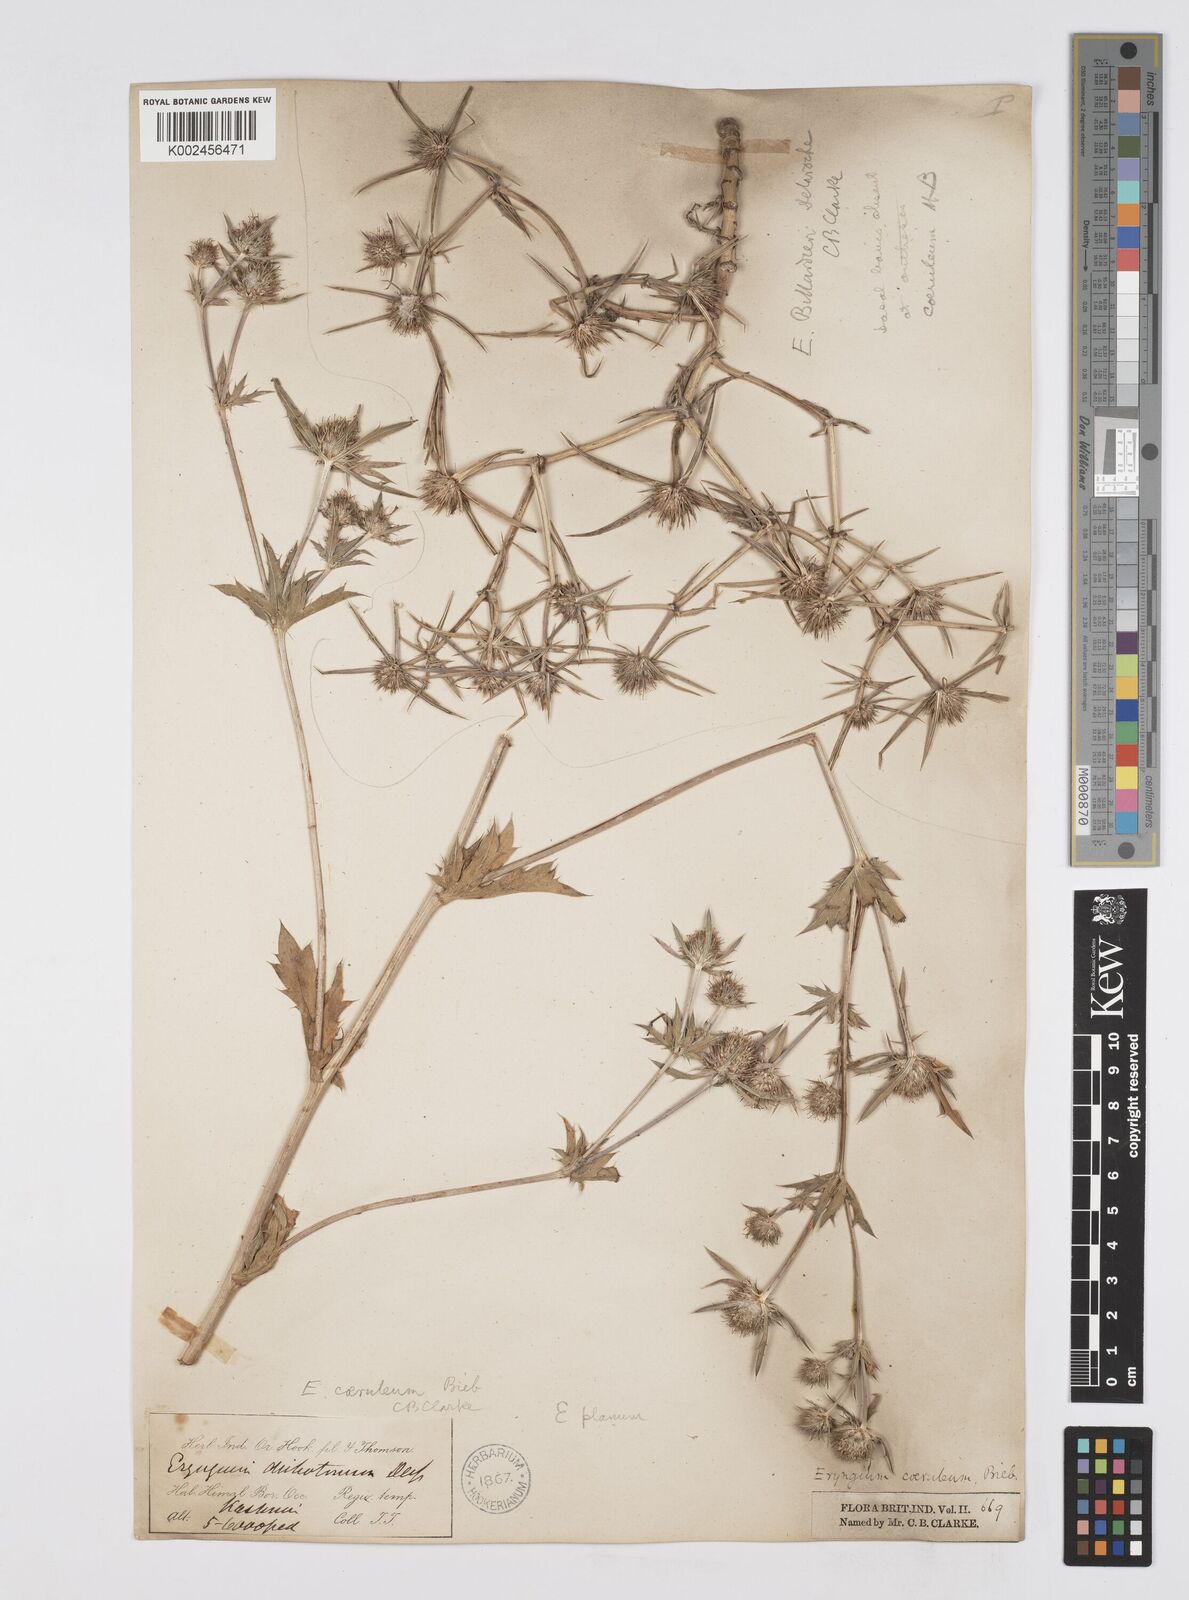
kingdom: Plantae
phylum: Tracheophyta
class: Magnoliopsida
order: Apiales
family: Apiaceae
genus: Eryngium
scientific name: Eryngium caeruleum
